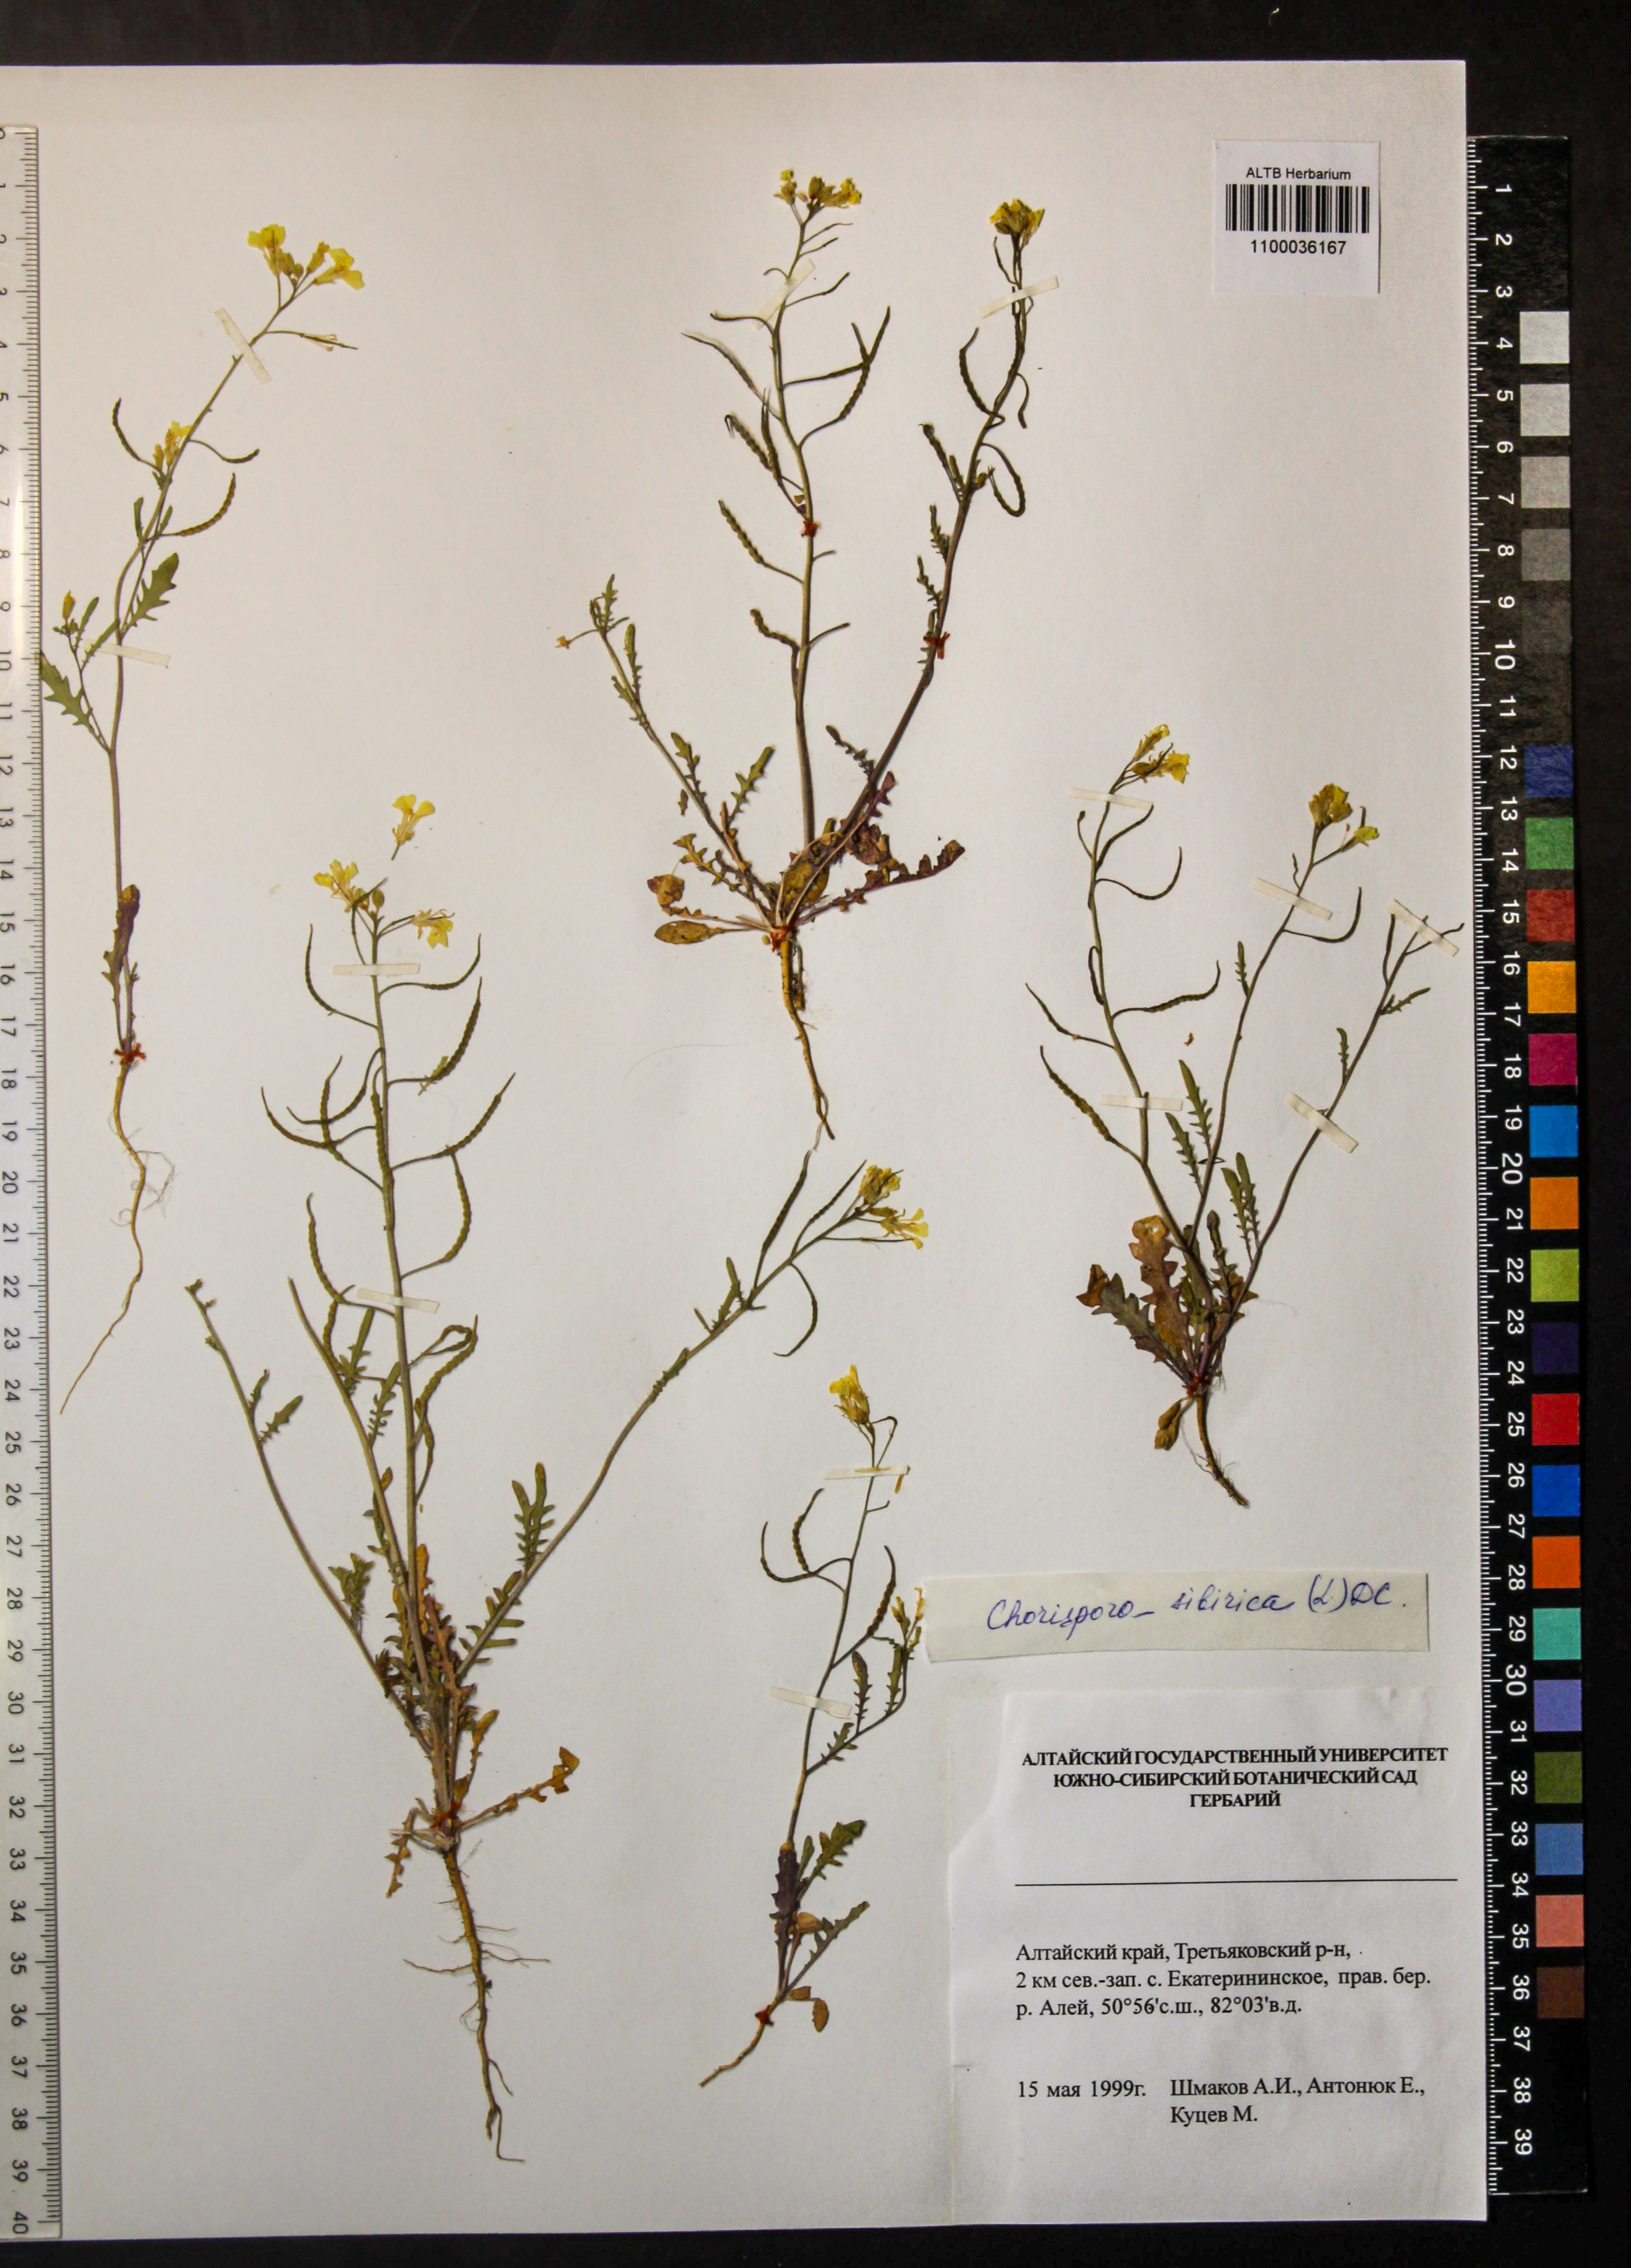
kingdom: Plantae
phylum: Tracheophyta
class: Magnoliopsida
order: Brassicales
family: Brassicaceae
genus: Chorispora
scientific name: Chorispora sibirica
